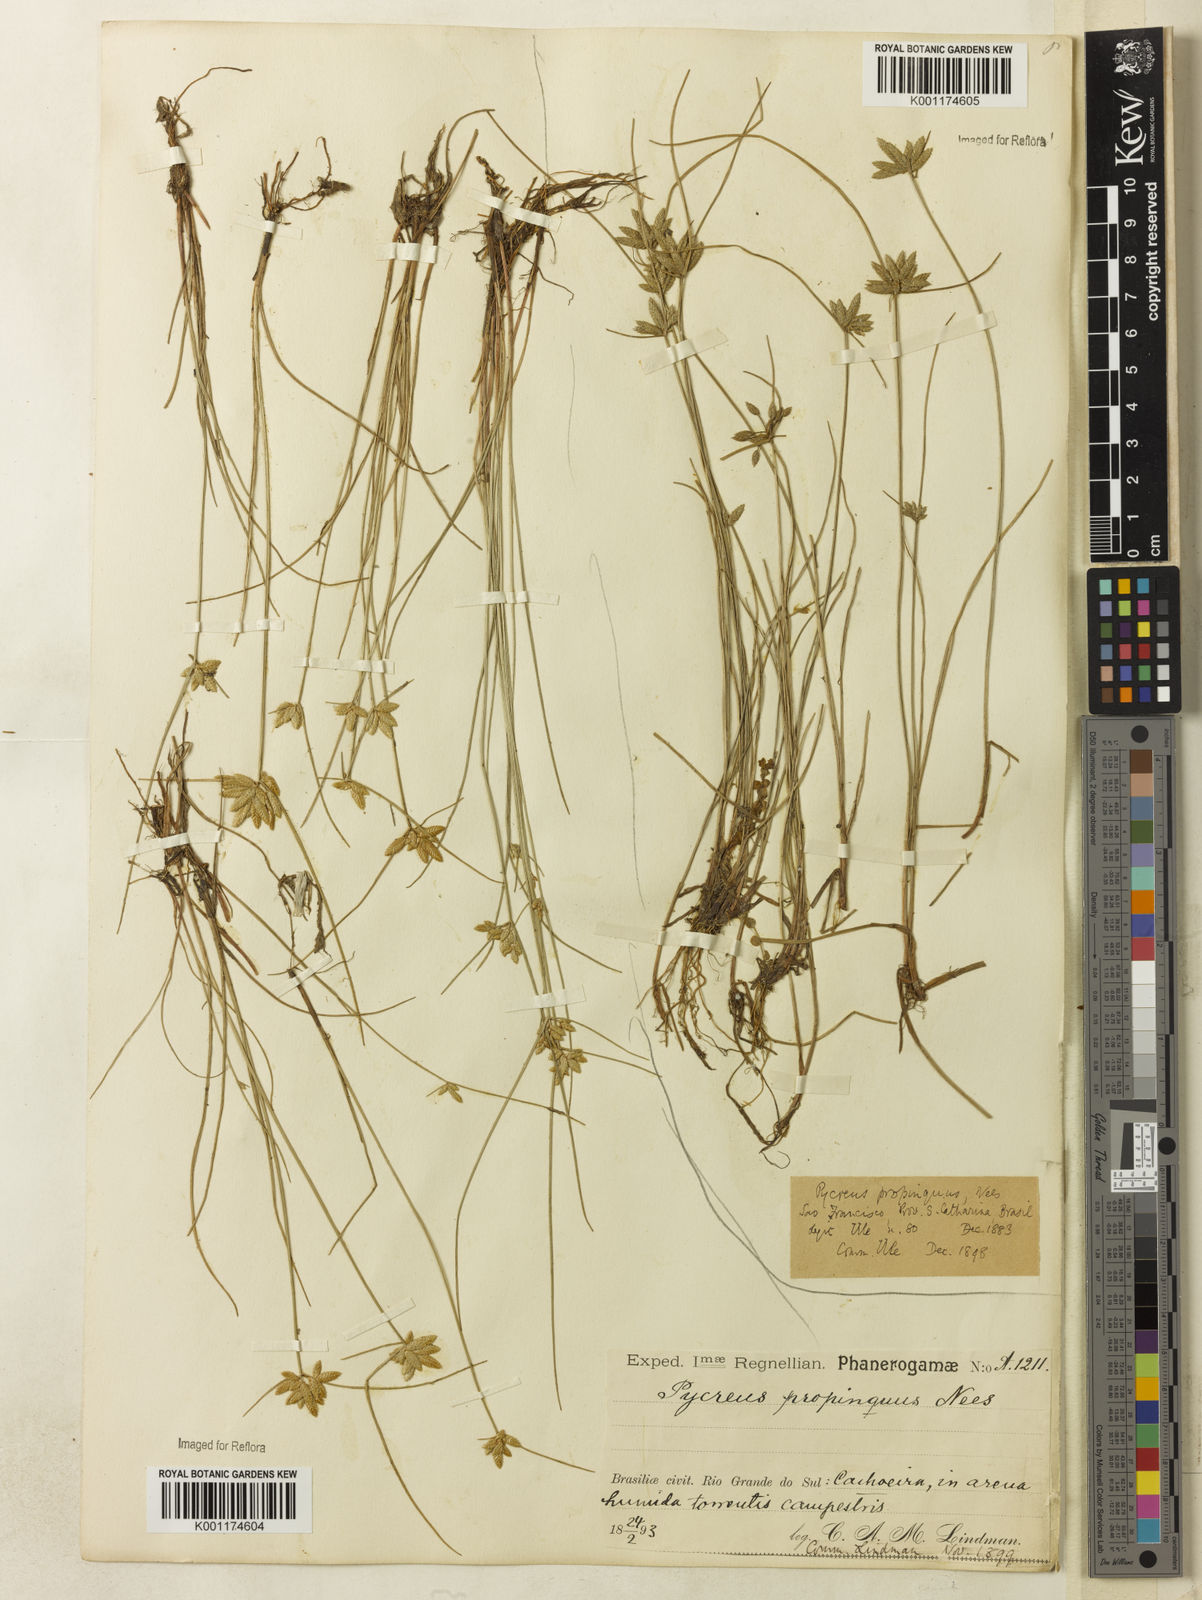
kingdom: Plantae
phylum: Tracheophyta
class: Liliopsida
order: Poales
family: Cyperaceae
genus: Cyperus
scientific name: Cyperus lanceolatus
